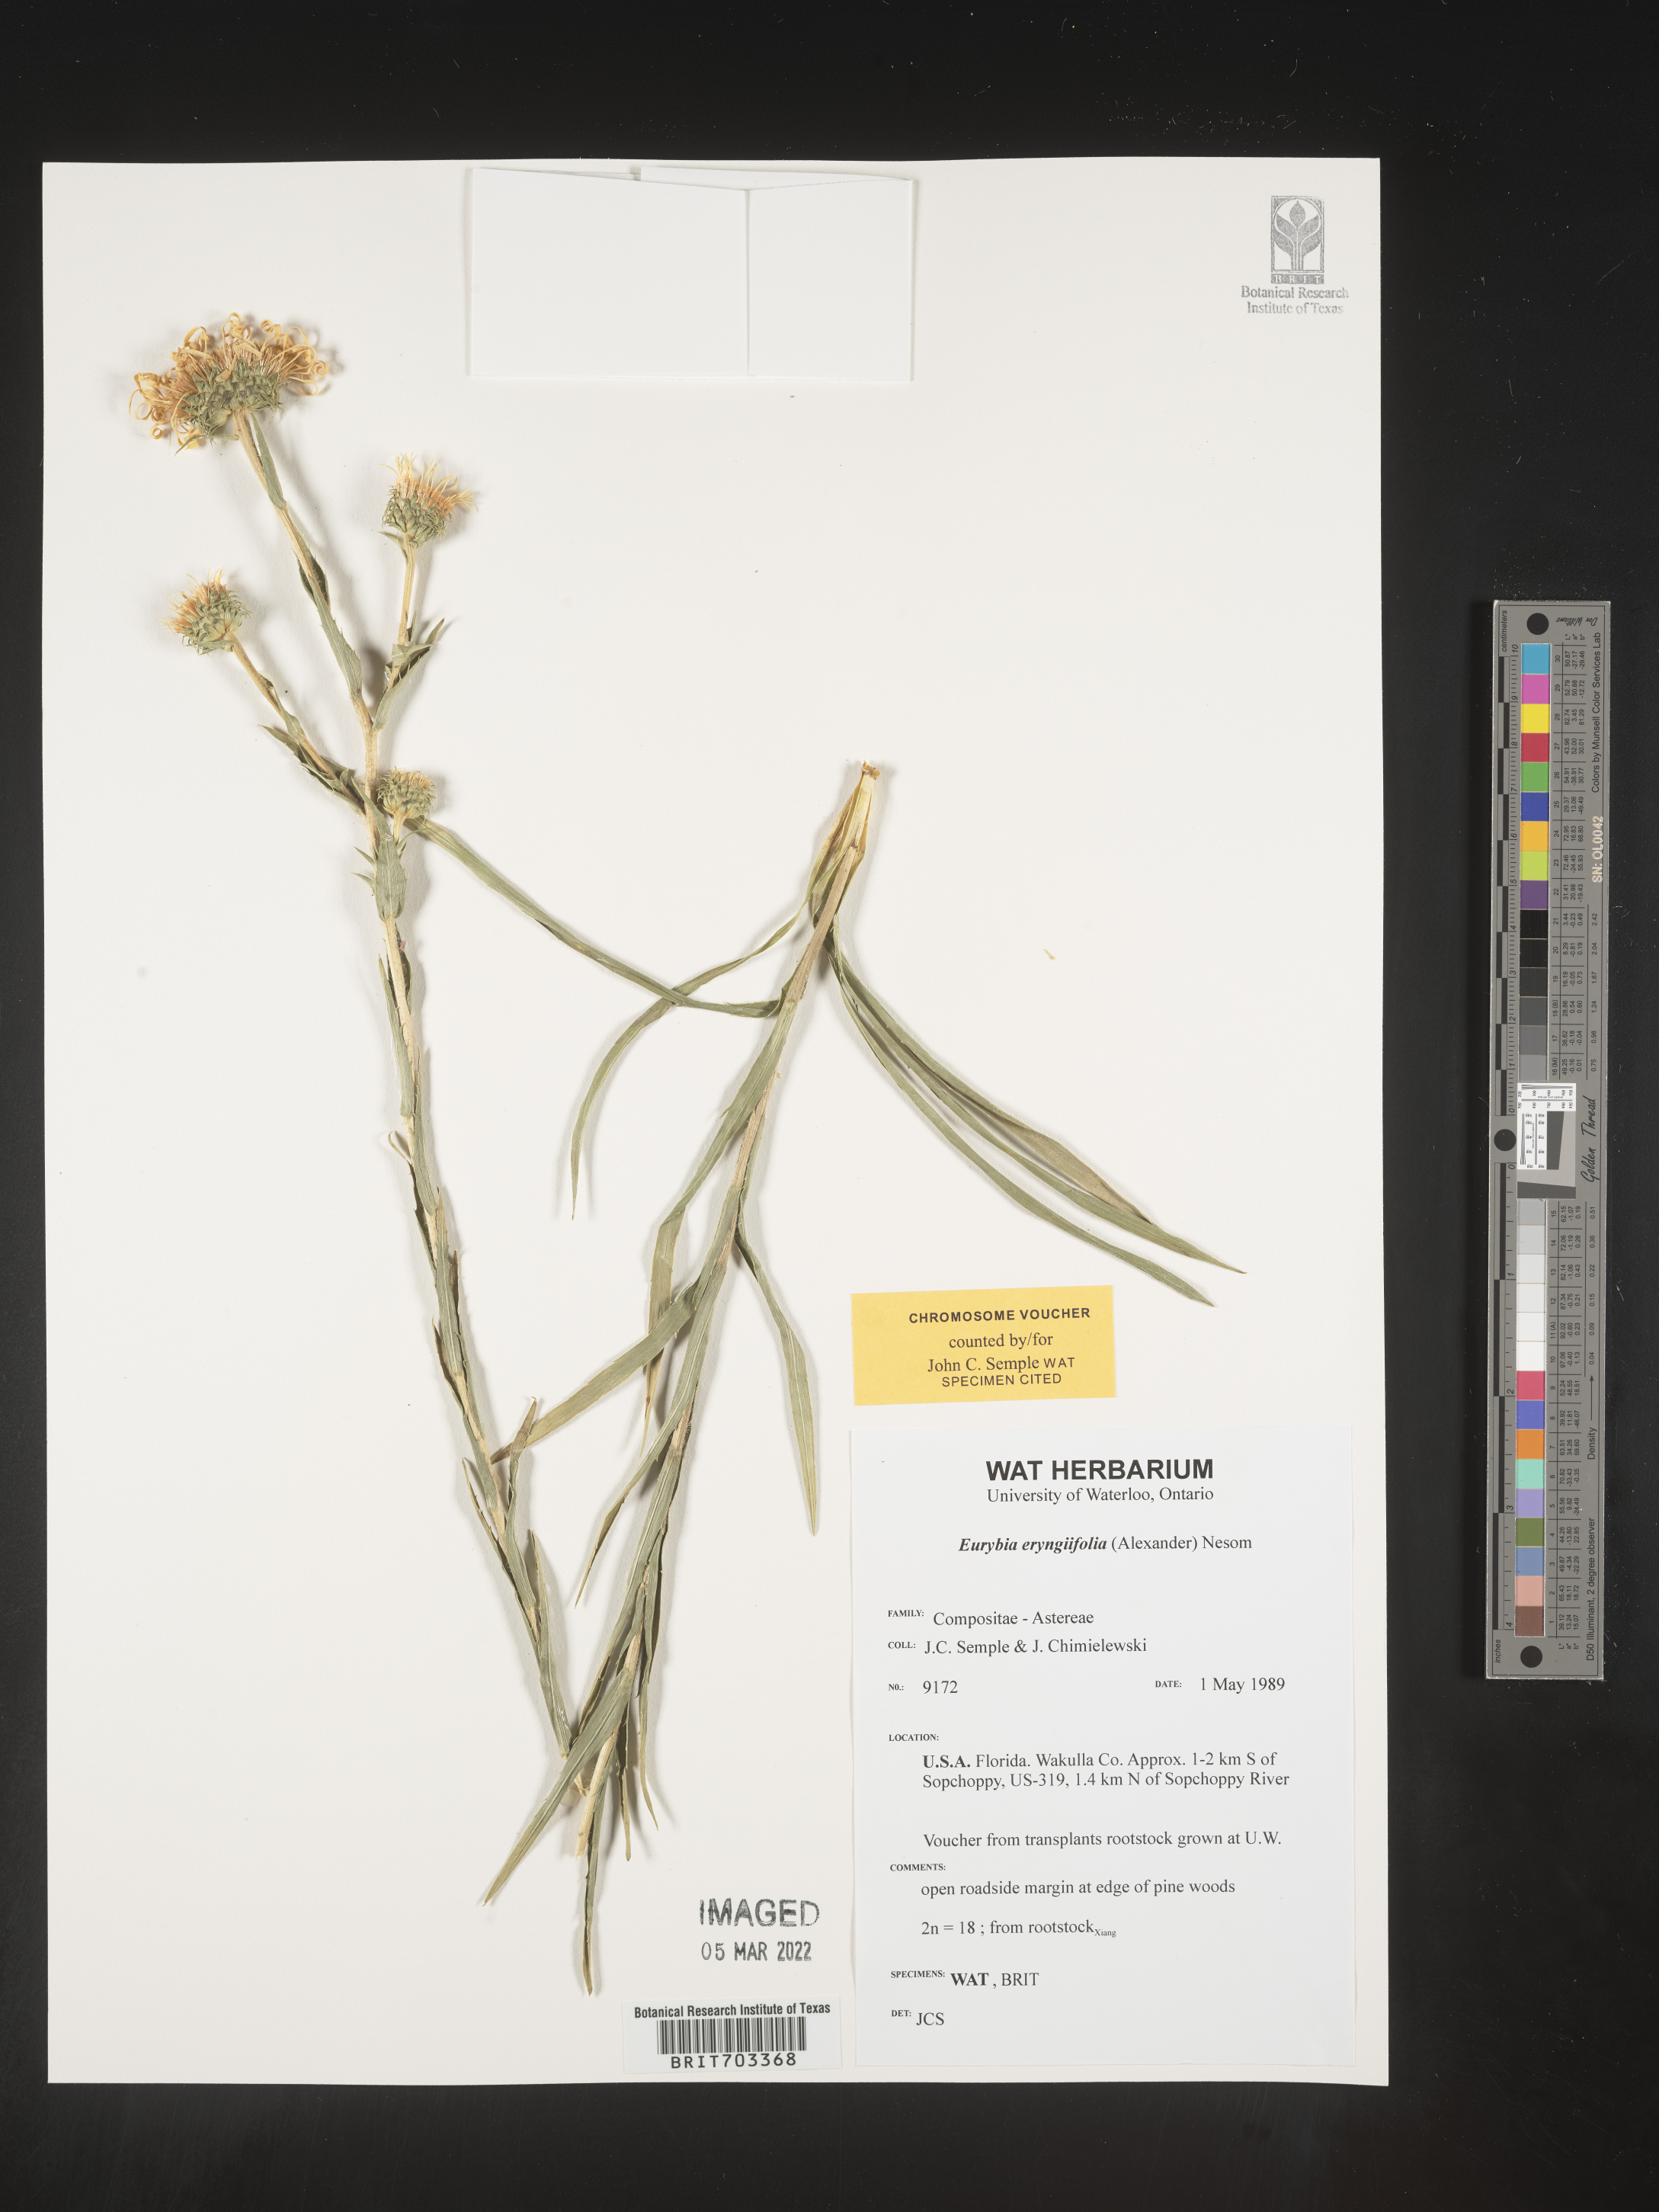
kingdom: Plantae
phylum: Tracheophyta
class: Magnoliopsida
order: Asterales
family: Asteraceae
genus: Eurybia
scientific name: Eurybia eryngiifolia
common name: Thistle-leaf aster
